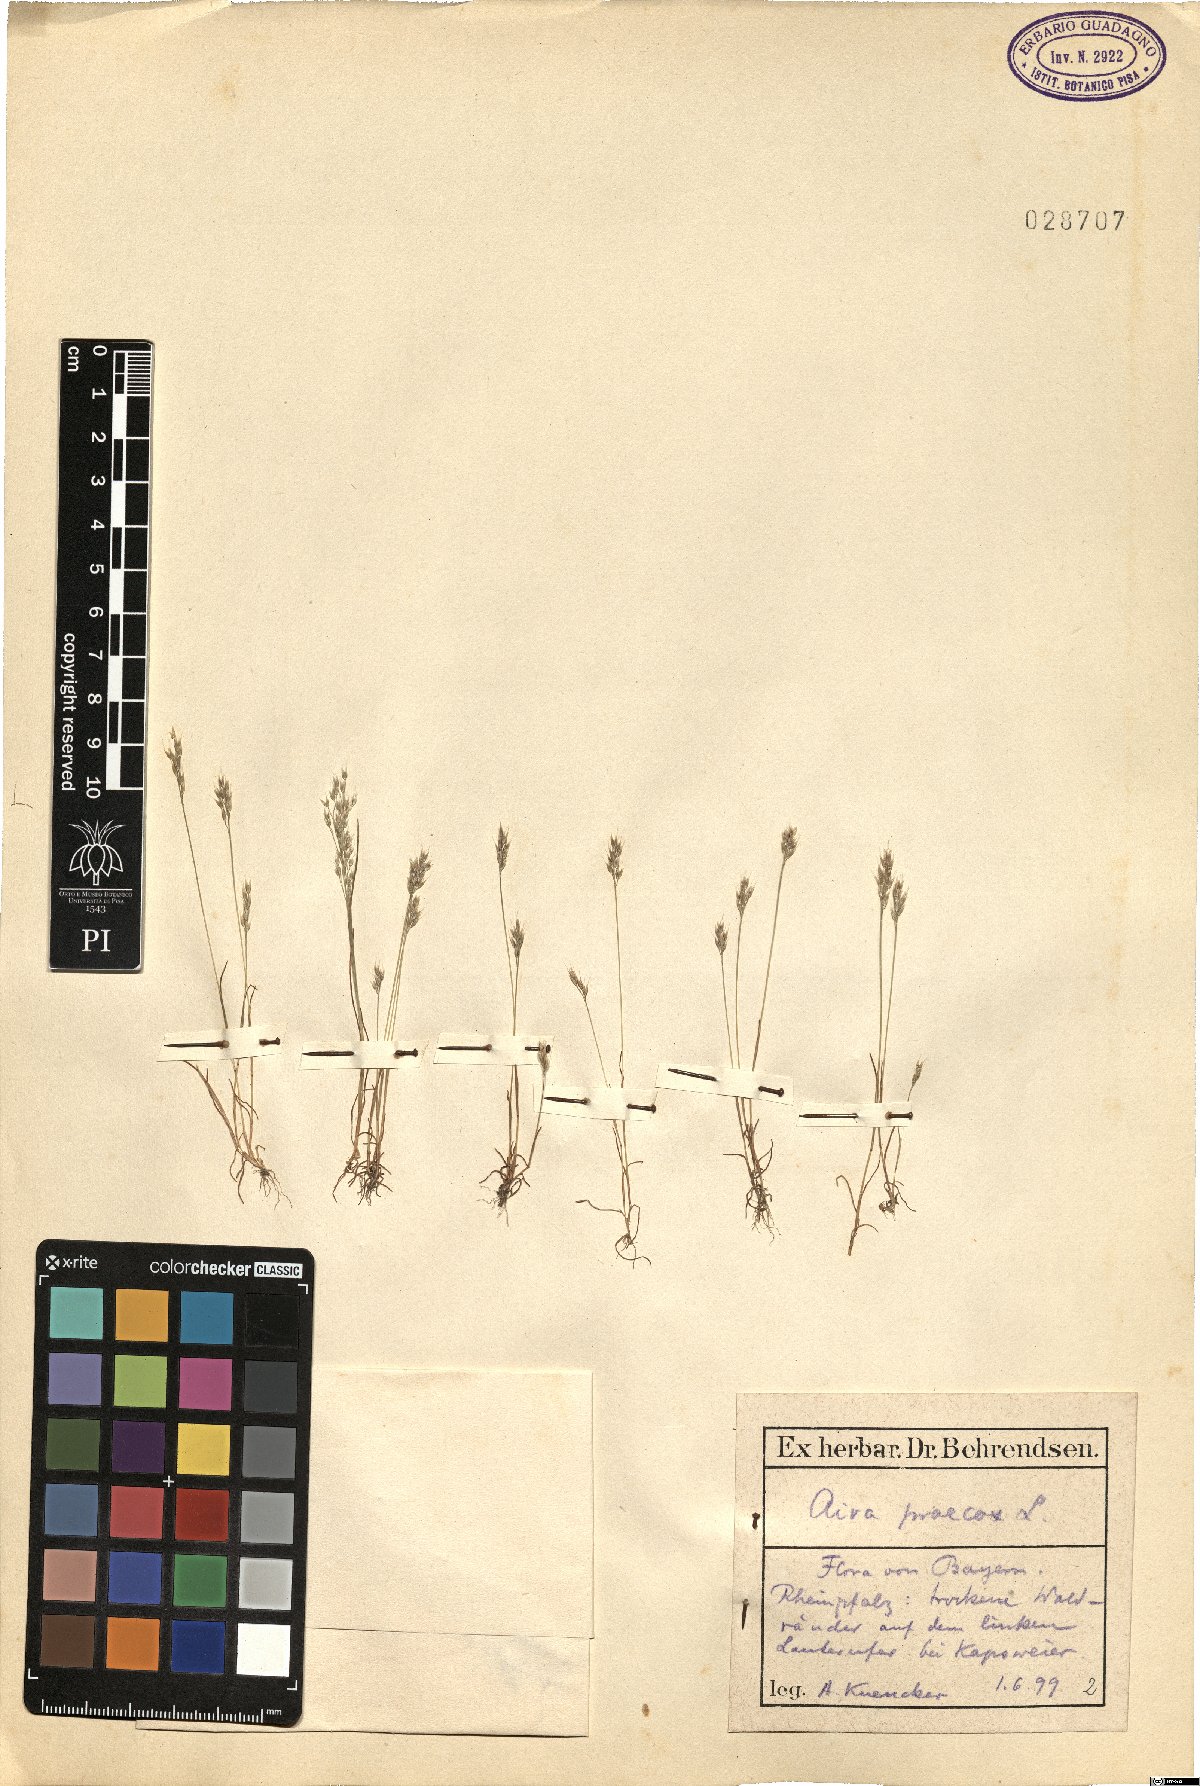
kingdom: Plantae
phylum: Tracheophyta
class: Liliopsida
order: Poales
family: Poaceae
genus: Aira
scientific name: Aira praecox
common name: Early hair-grass
